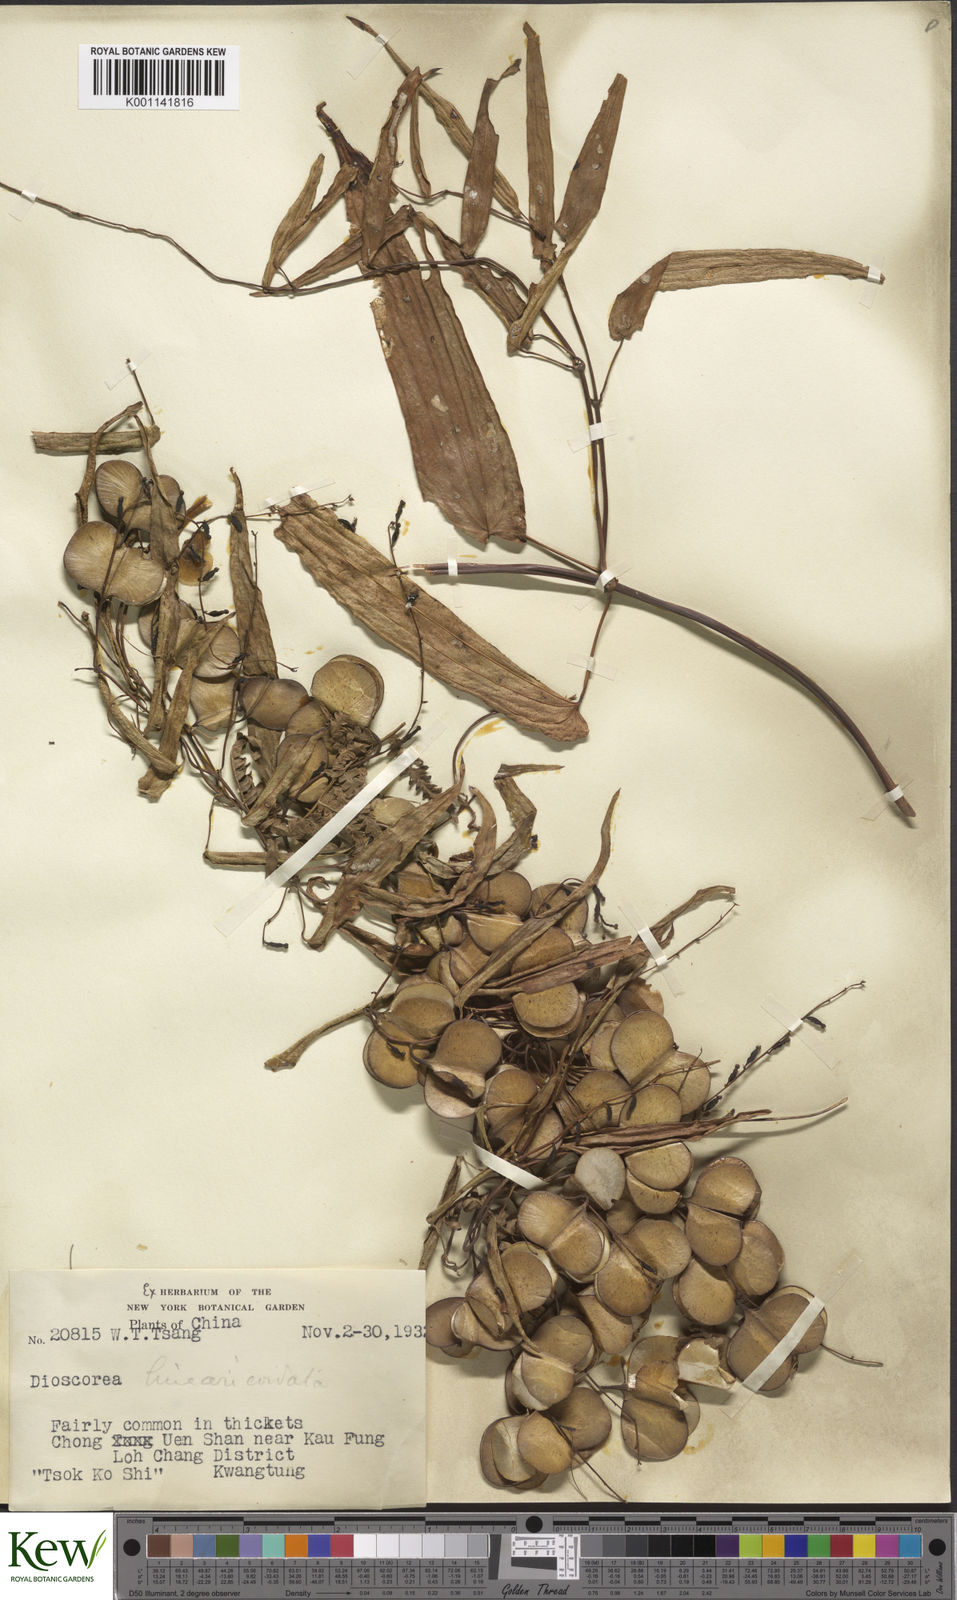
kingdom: Plantae
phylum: Tracheophyta
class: Liliopsida
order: Dioscoreales
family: Dioscoreaceae
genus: Dioscorea
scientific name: Dioscorea linearicordata
